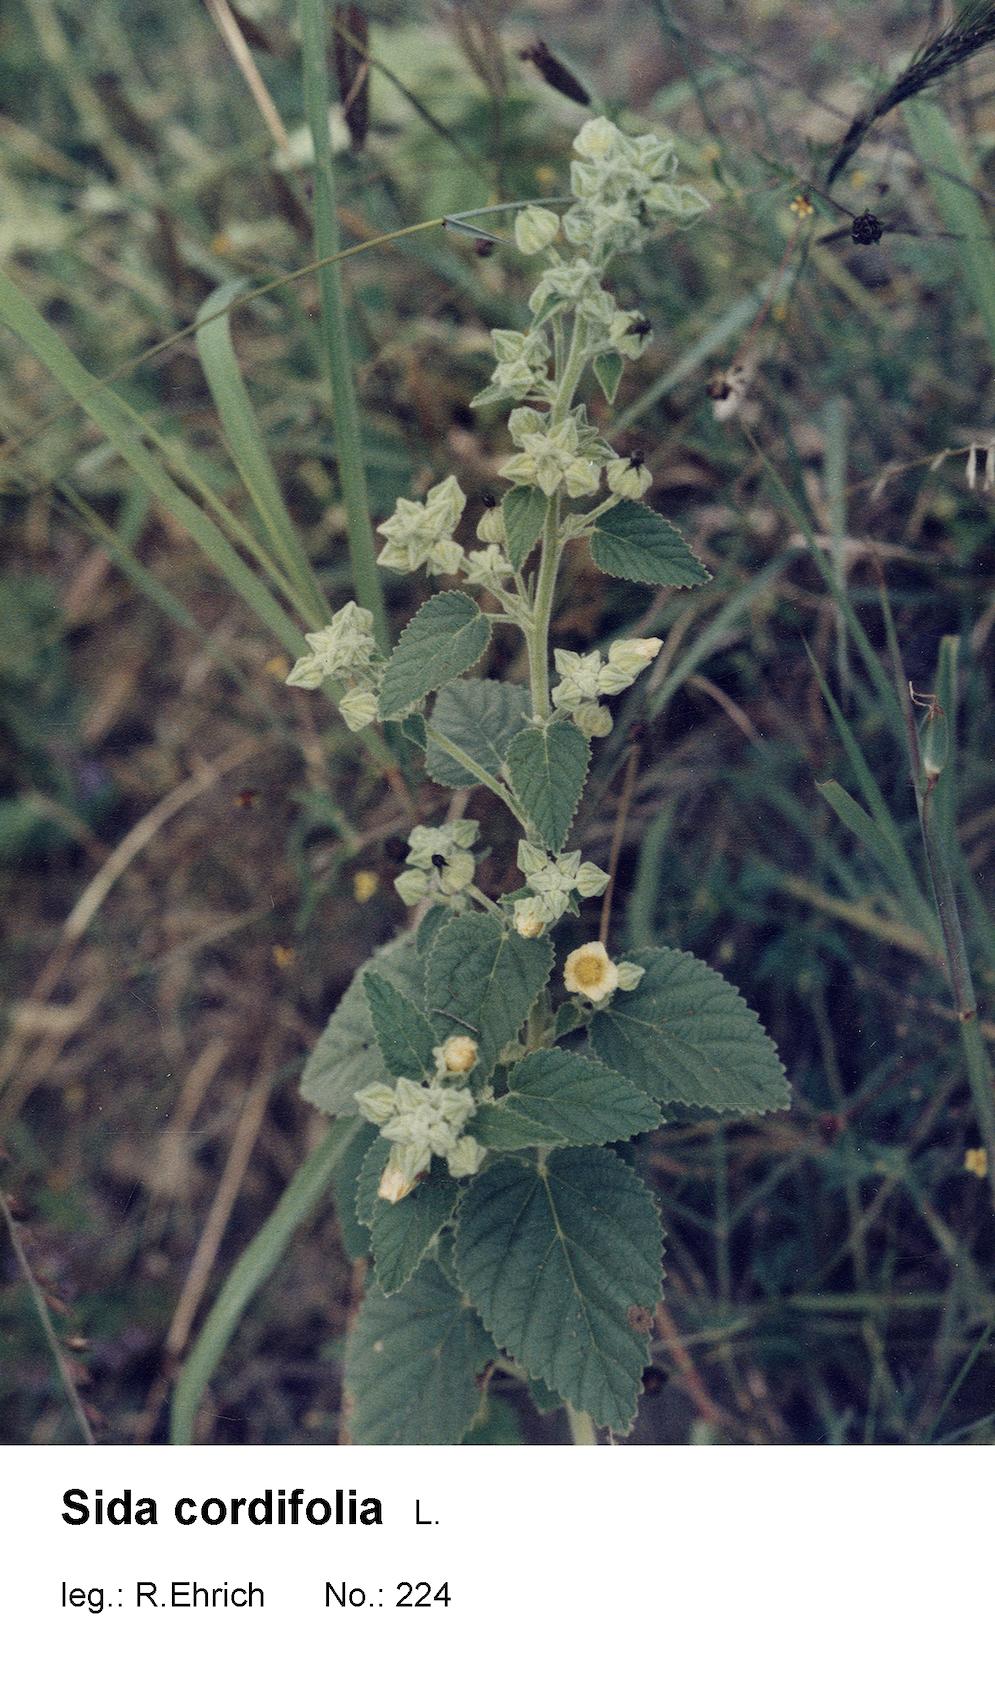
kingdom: Plantae
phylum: Tracheophyta
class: Magnoliopsida
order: Malvales
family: Malvaceae
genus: Sida
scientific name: Sida cordifolia
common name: Ilima
